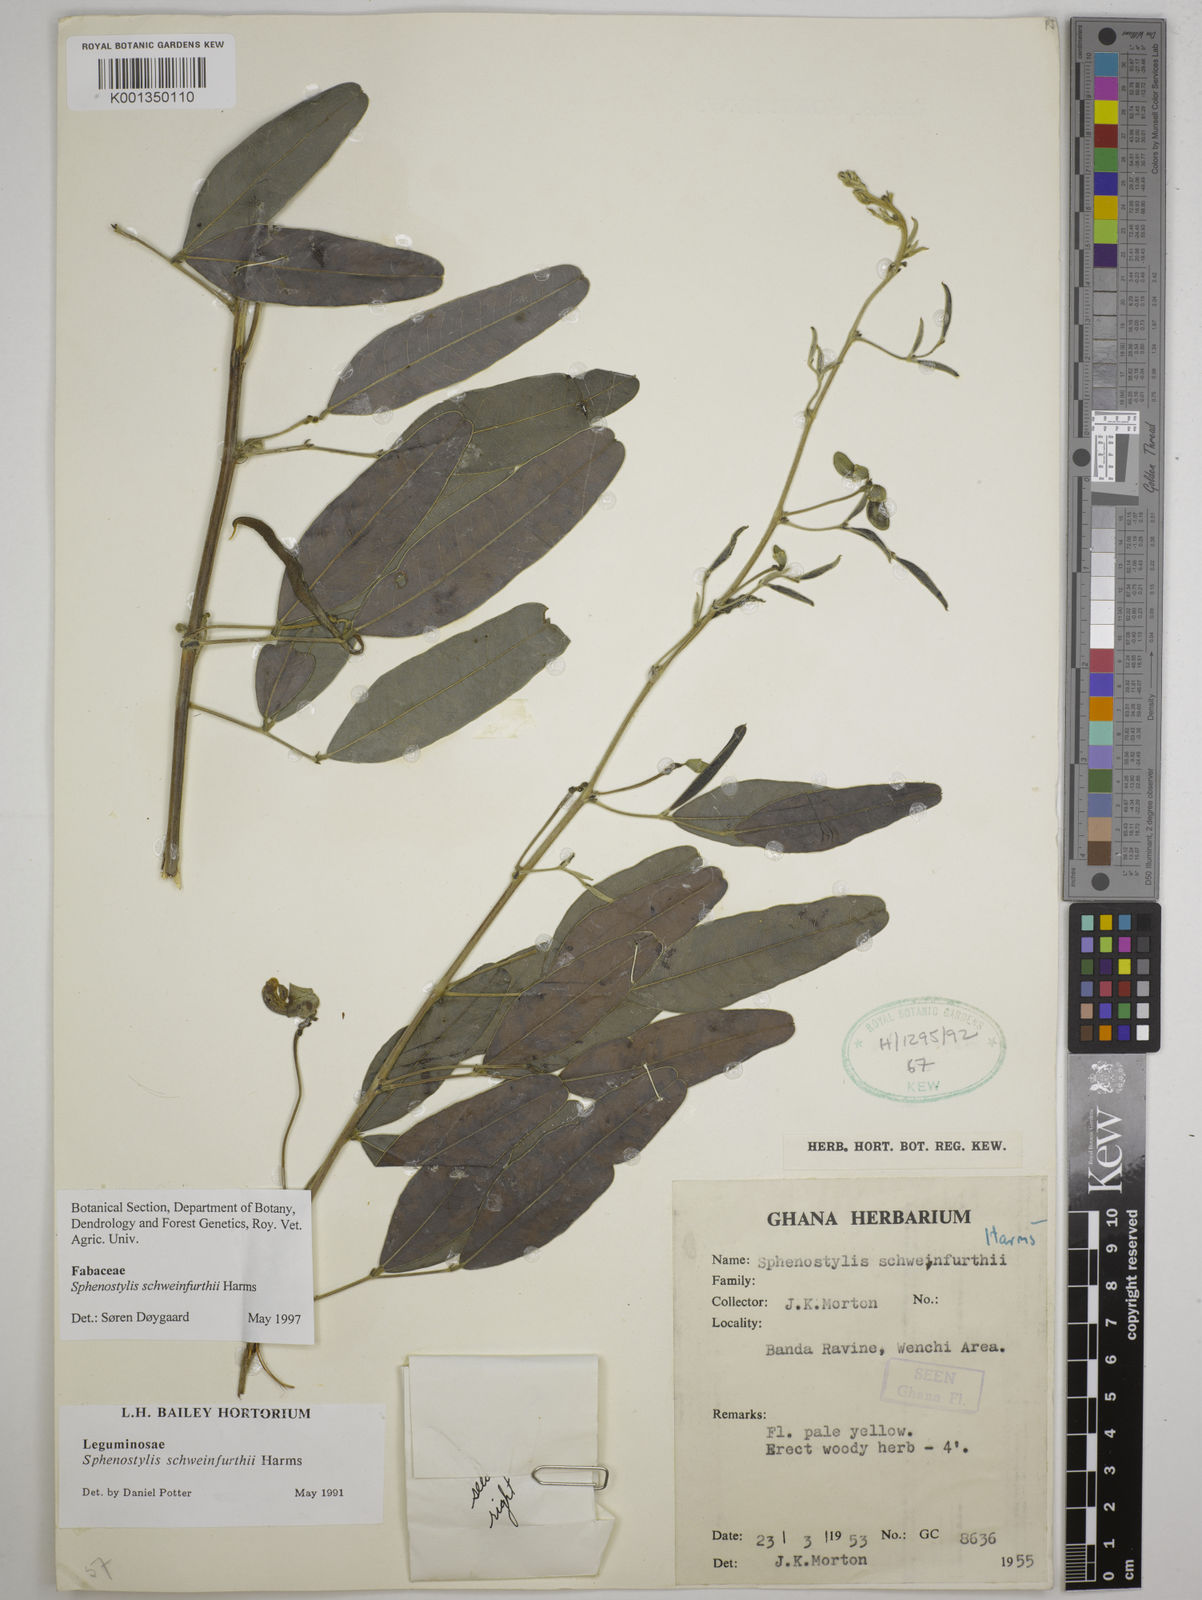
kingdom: Plantae
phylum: Tracheophyta
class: Magnoliopsida
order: Fabales
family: Fabaceae
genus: Sphenostylis
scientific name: Sphenostylis schweinfurthii
